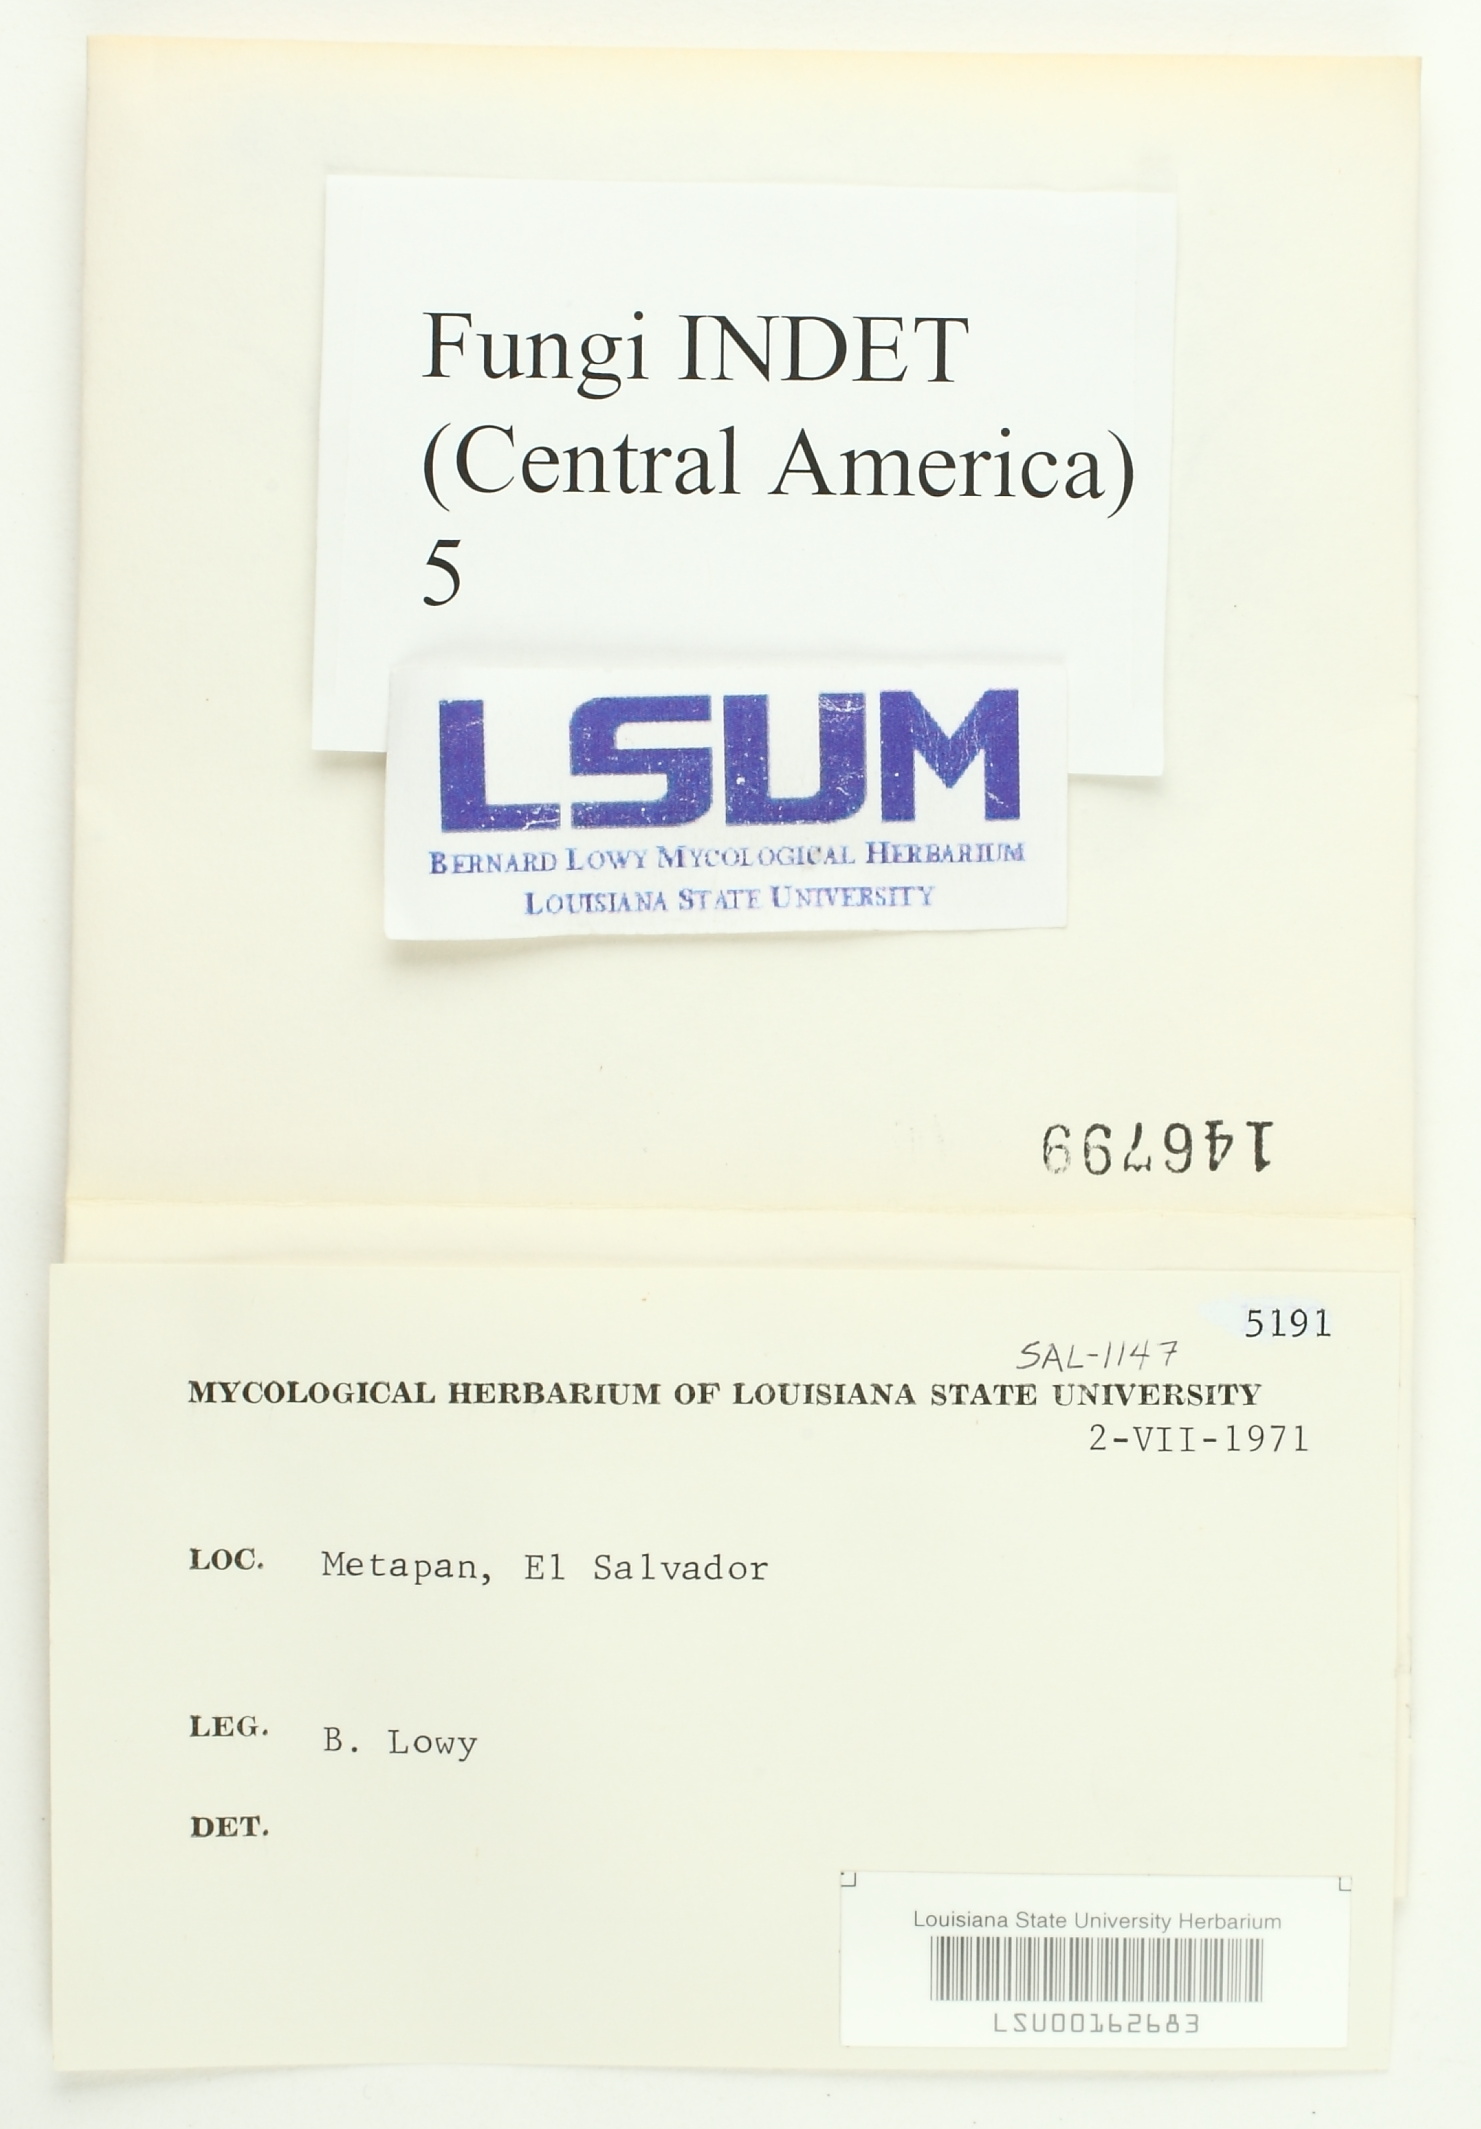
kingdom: Fungi
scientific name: Fungi
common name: Fungi
